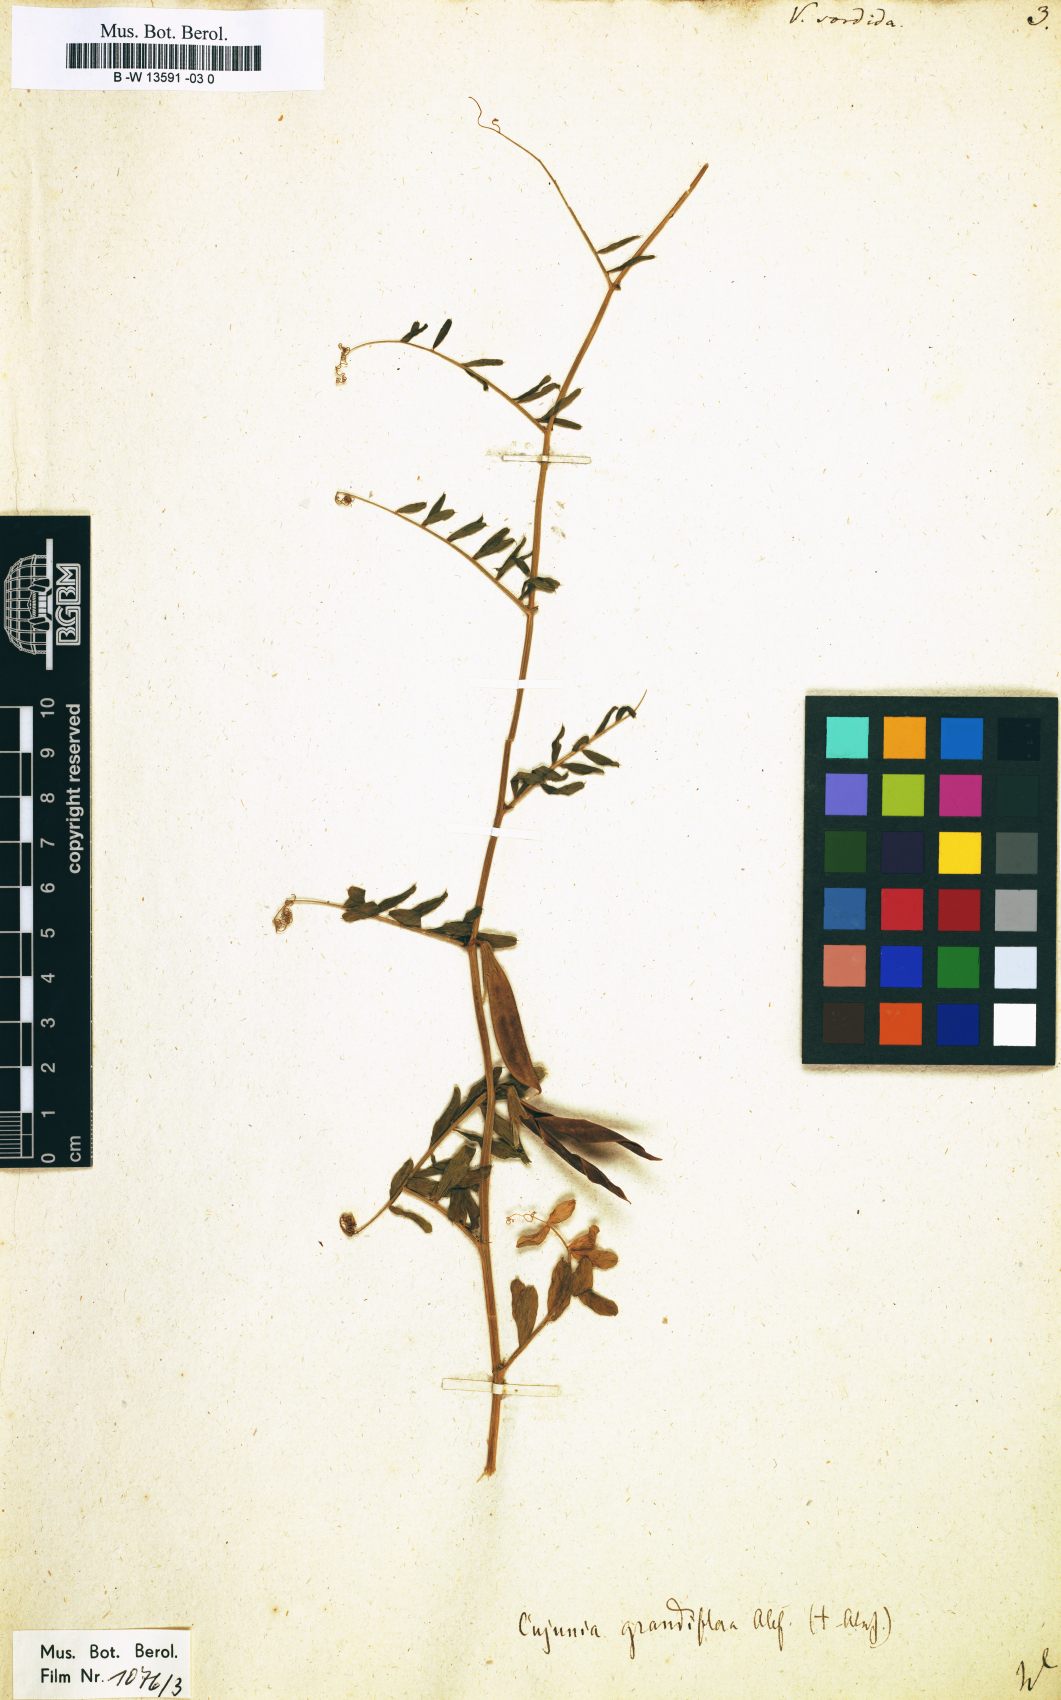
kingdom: Plantae
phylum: Tracheophyta
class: Magnoliopsida
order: Fabales
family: Fabaceae
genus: Vicia
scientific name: Vicia
